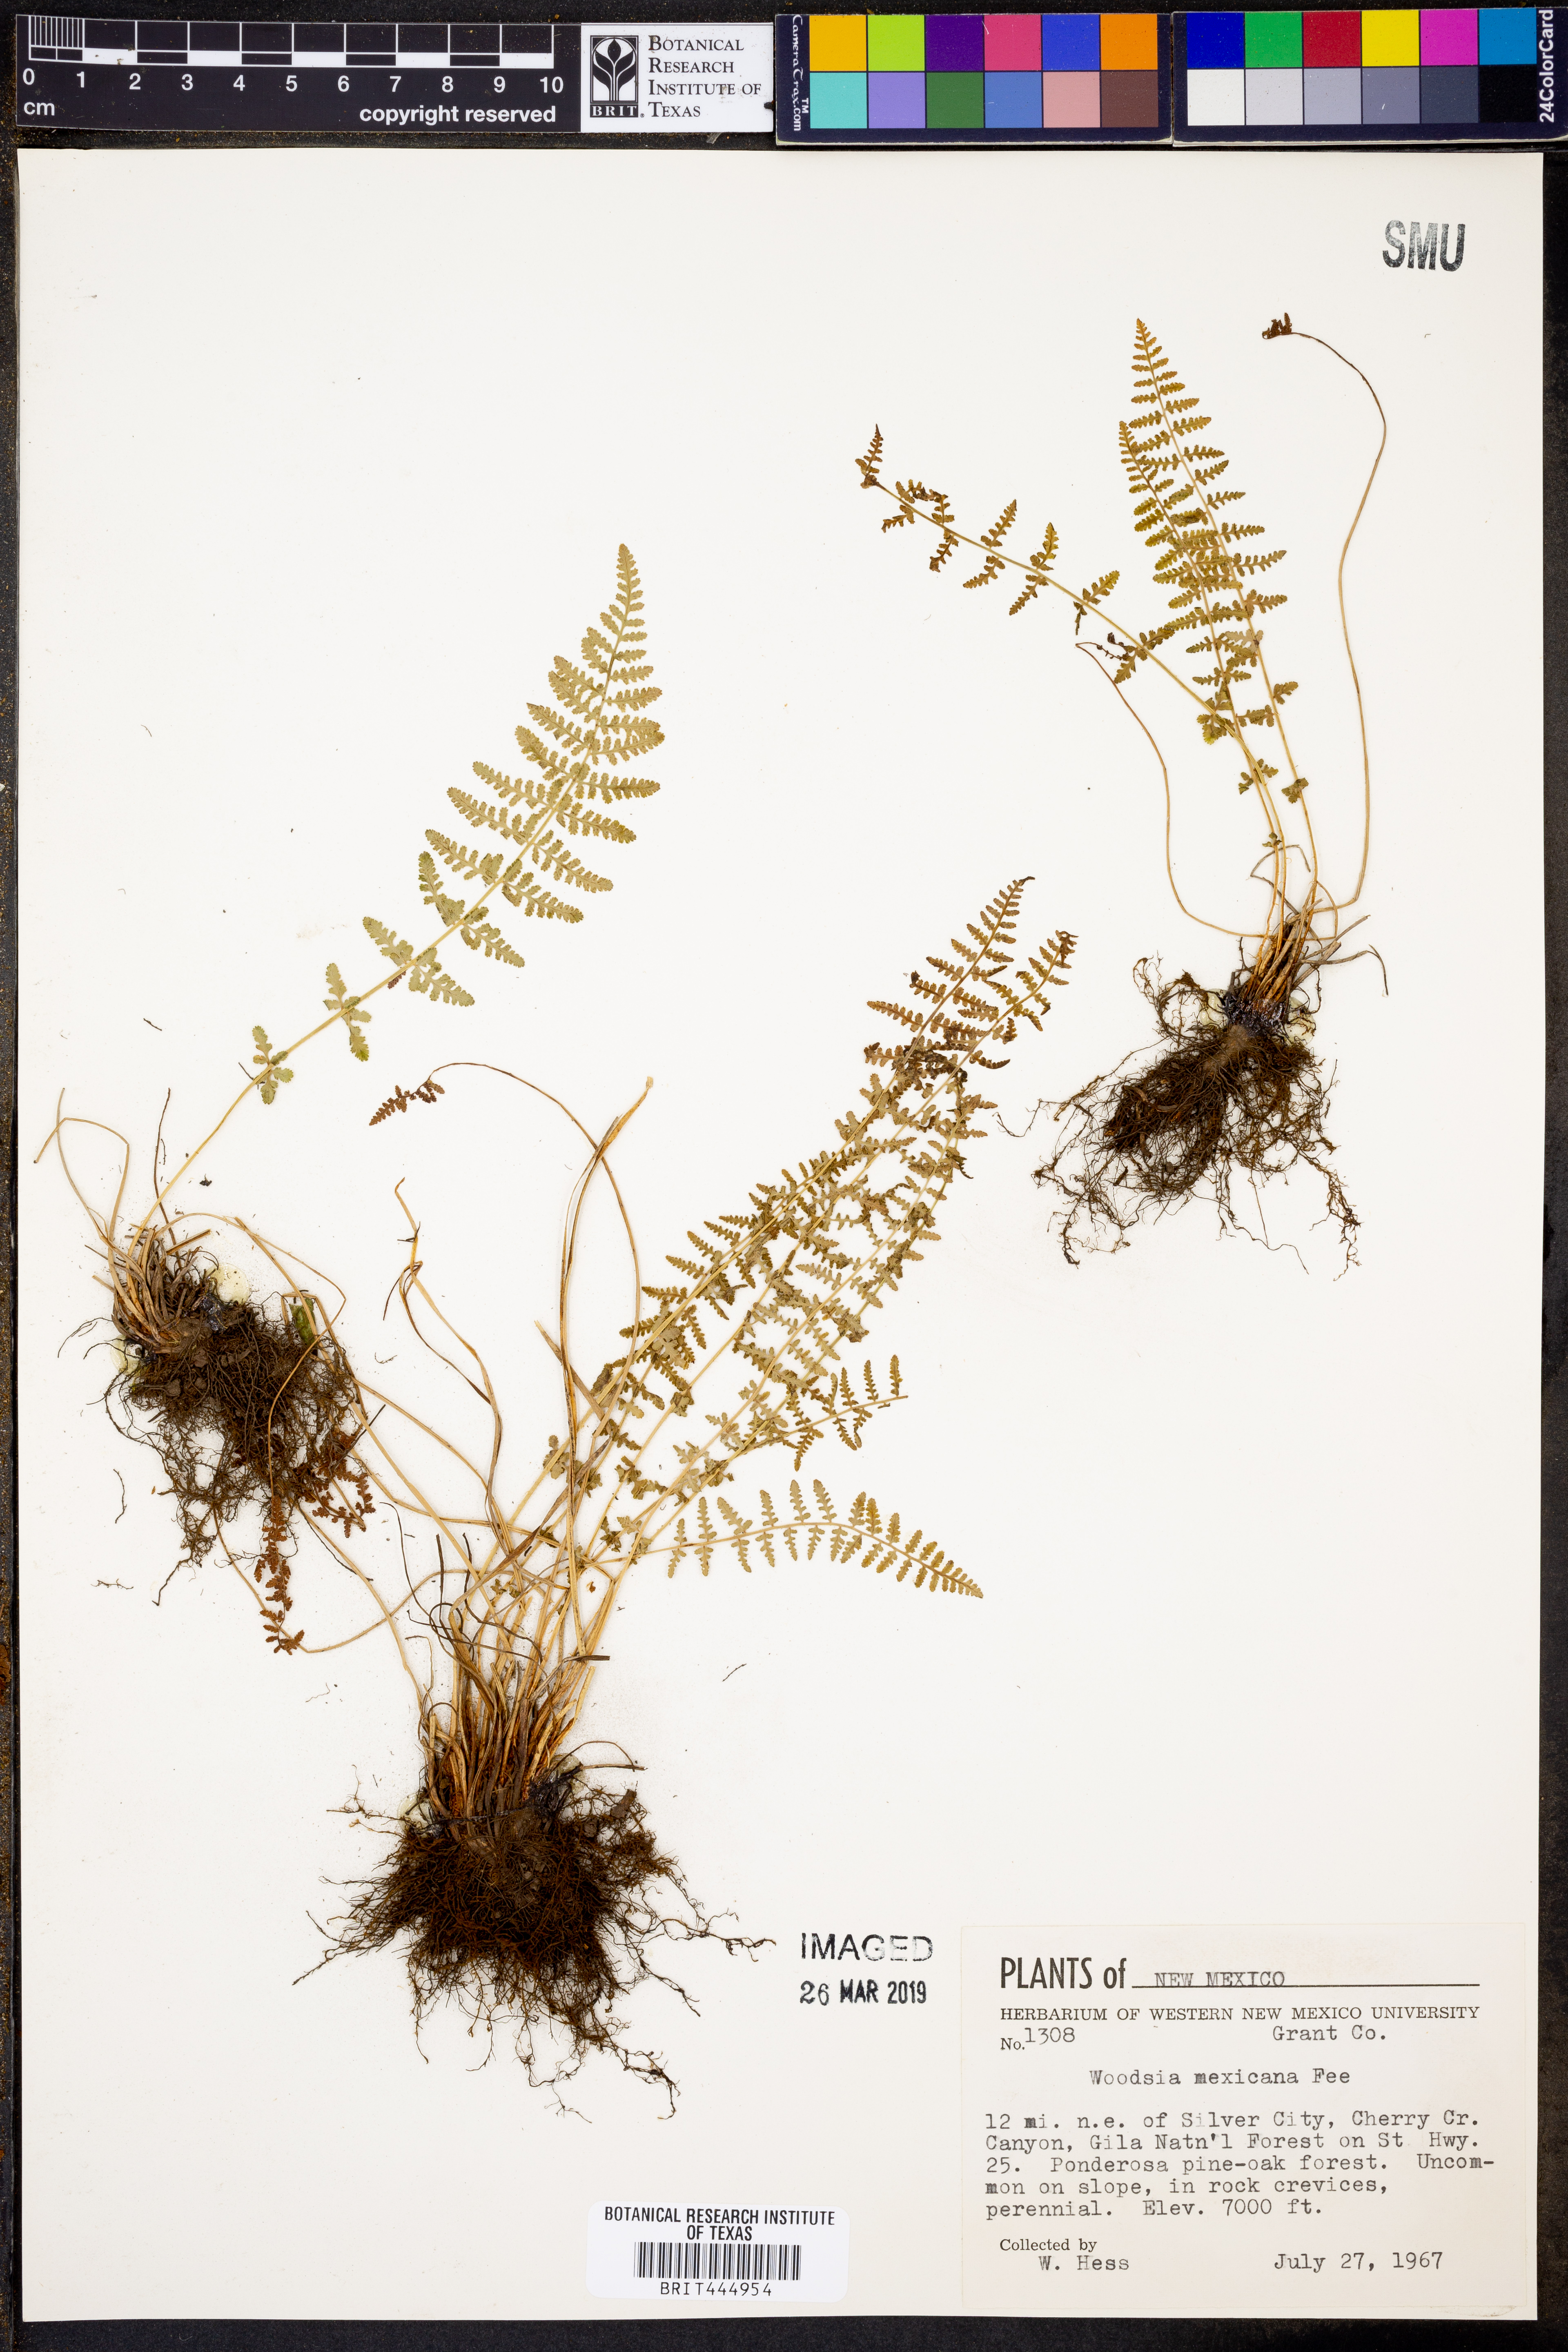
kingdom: Plantae
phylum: Tracheophyta
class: Polypodiopsida
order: Polypodiales
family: Woodsiaceae
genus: Physematium
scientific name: Physematium mexicanum
